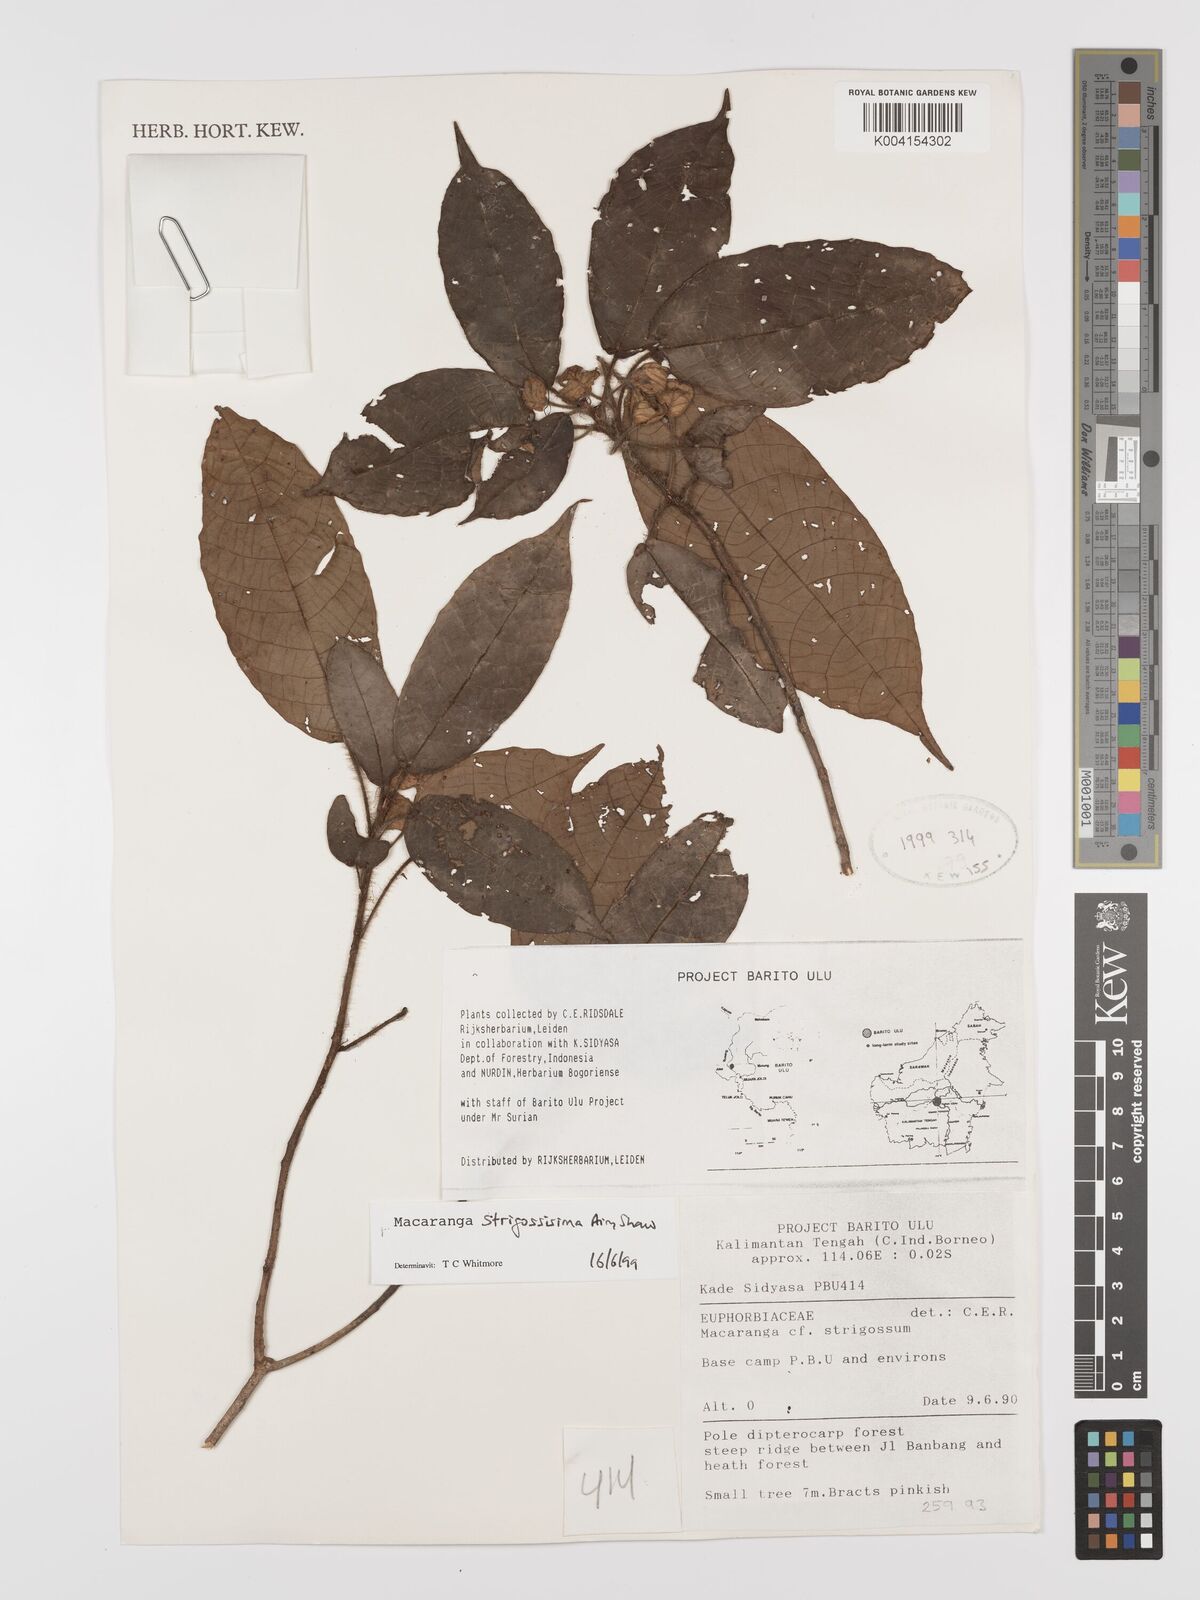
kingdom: Plantae
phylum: Tracheophyta
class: Magnoliopsida
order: Malpighiales
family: Euphorbiaceae
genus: Macaranga
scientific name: Macaranga strigosissima
